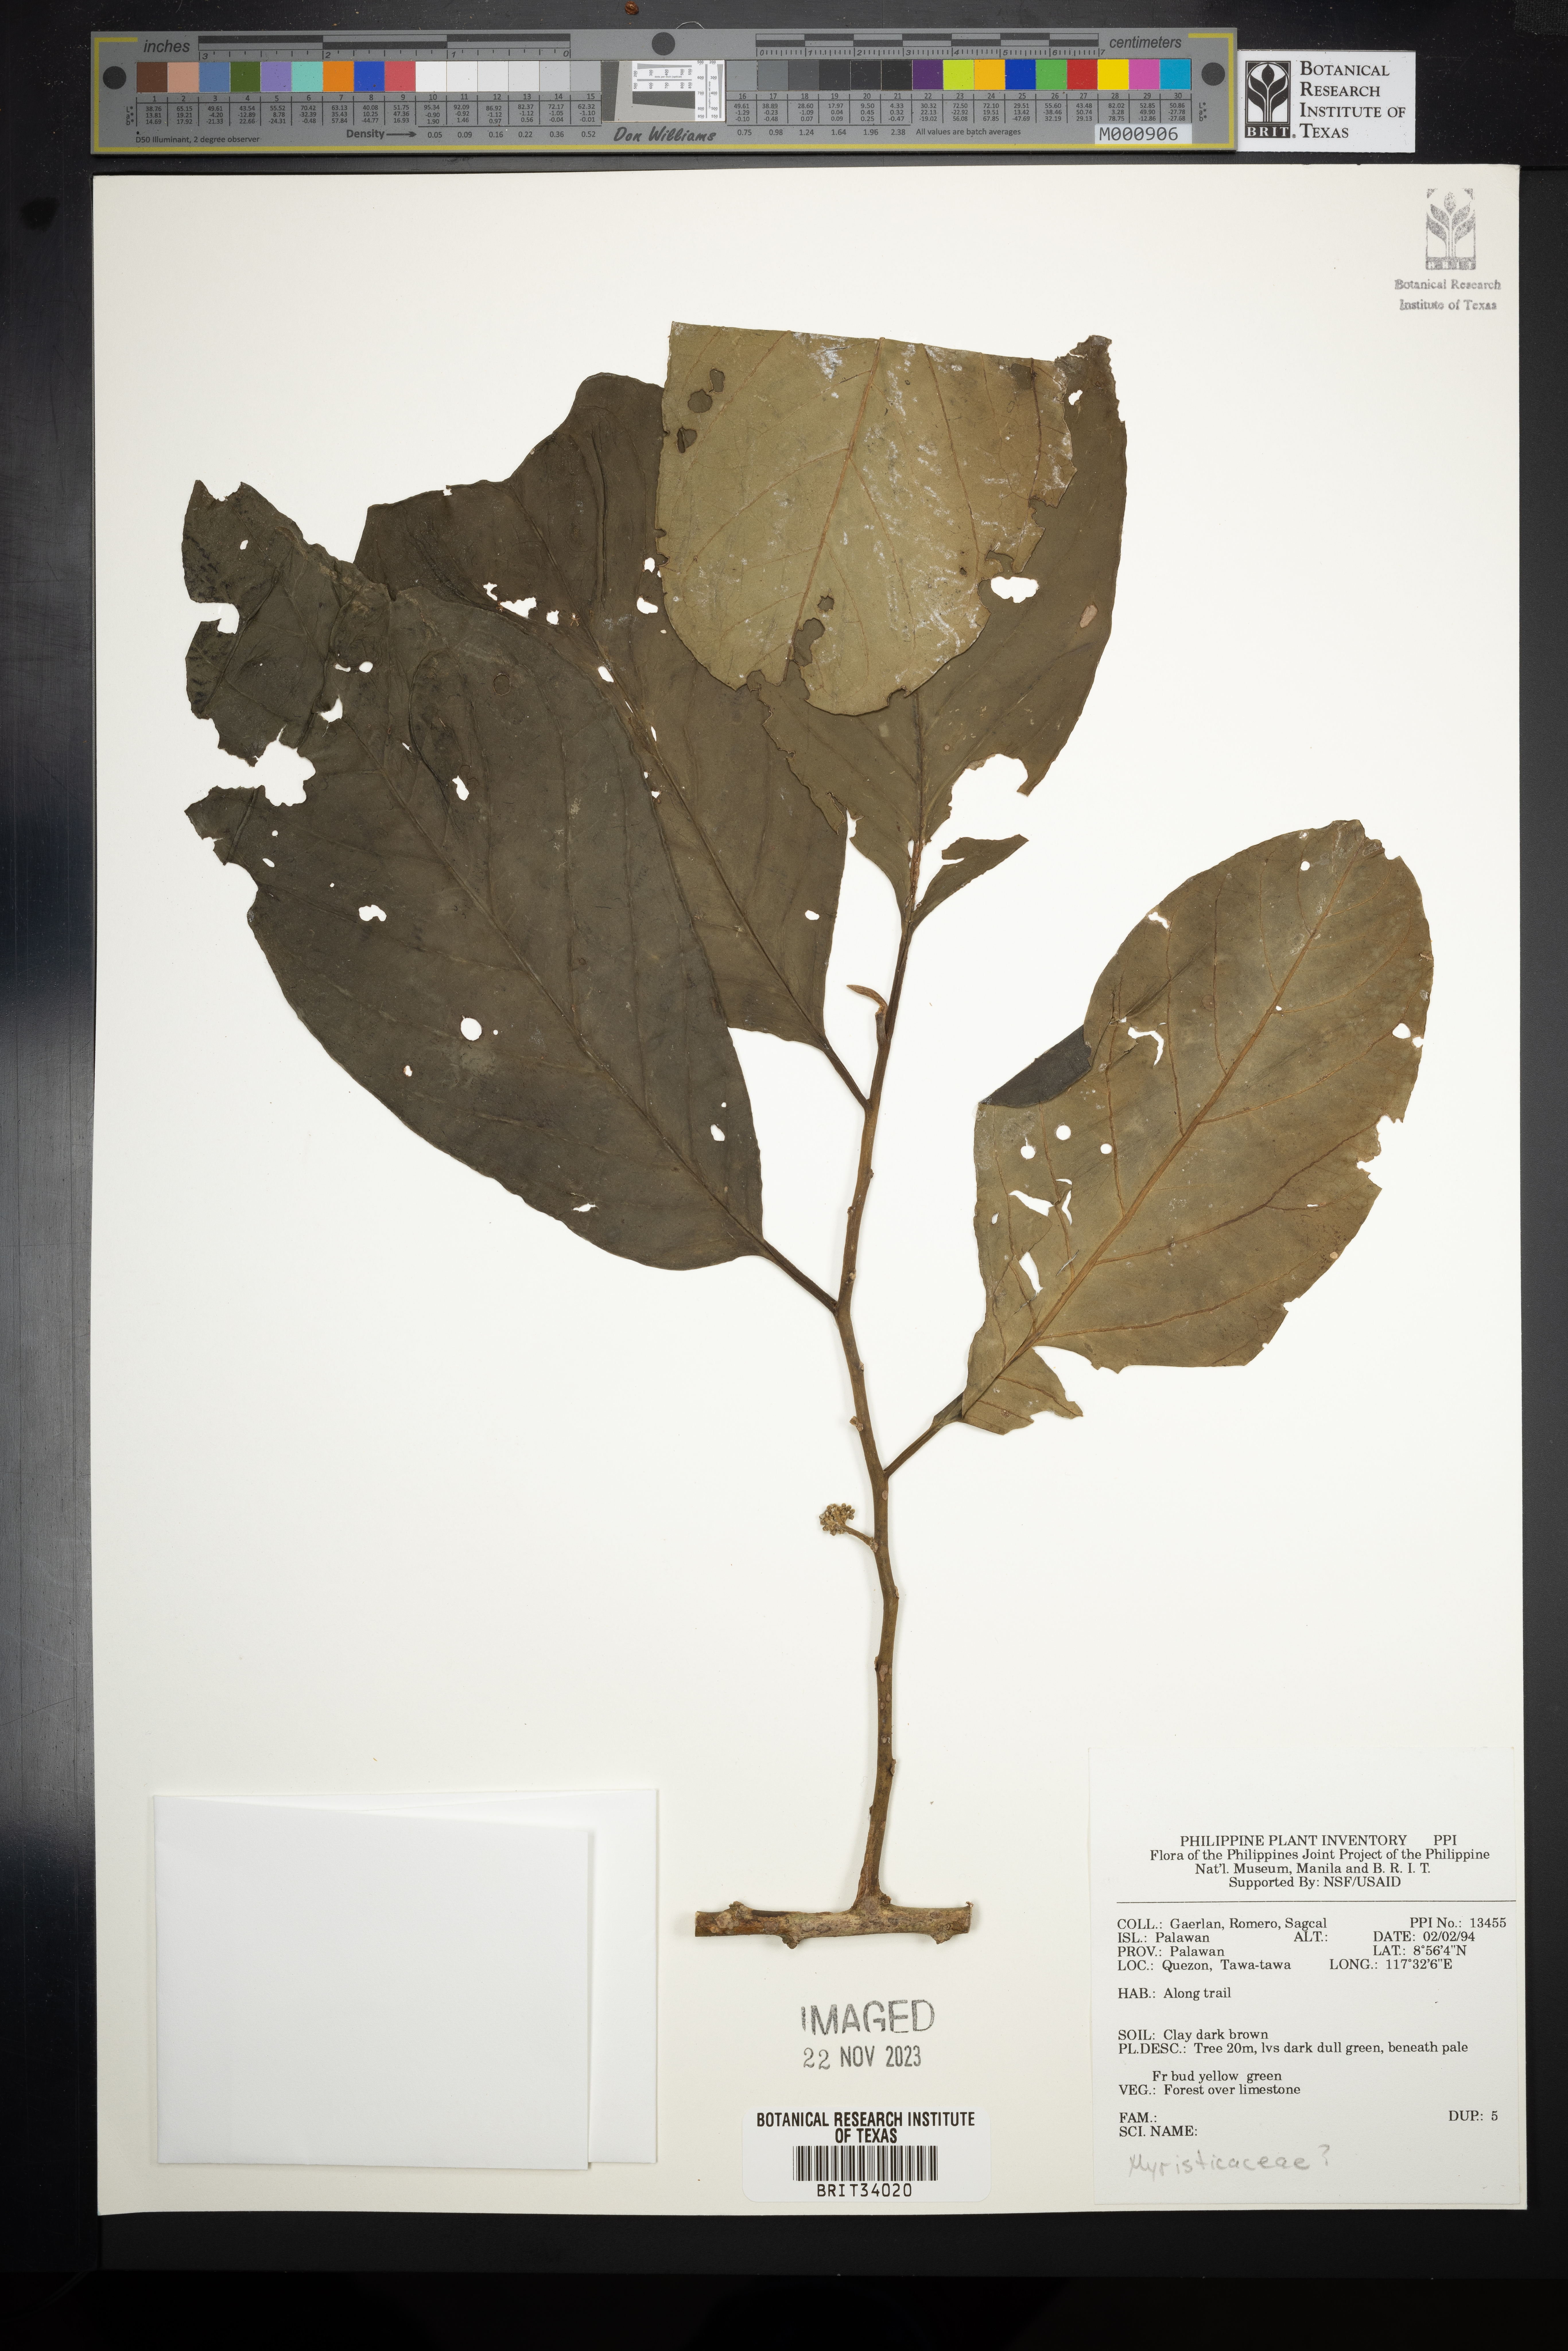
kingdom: Plantae
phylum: Tracheophyta
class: Magnoliopsida
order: Magnoliales
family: Myristicaceae
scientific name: Myristicaceae
